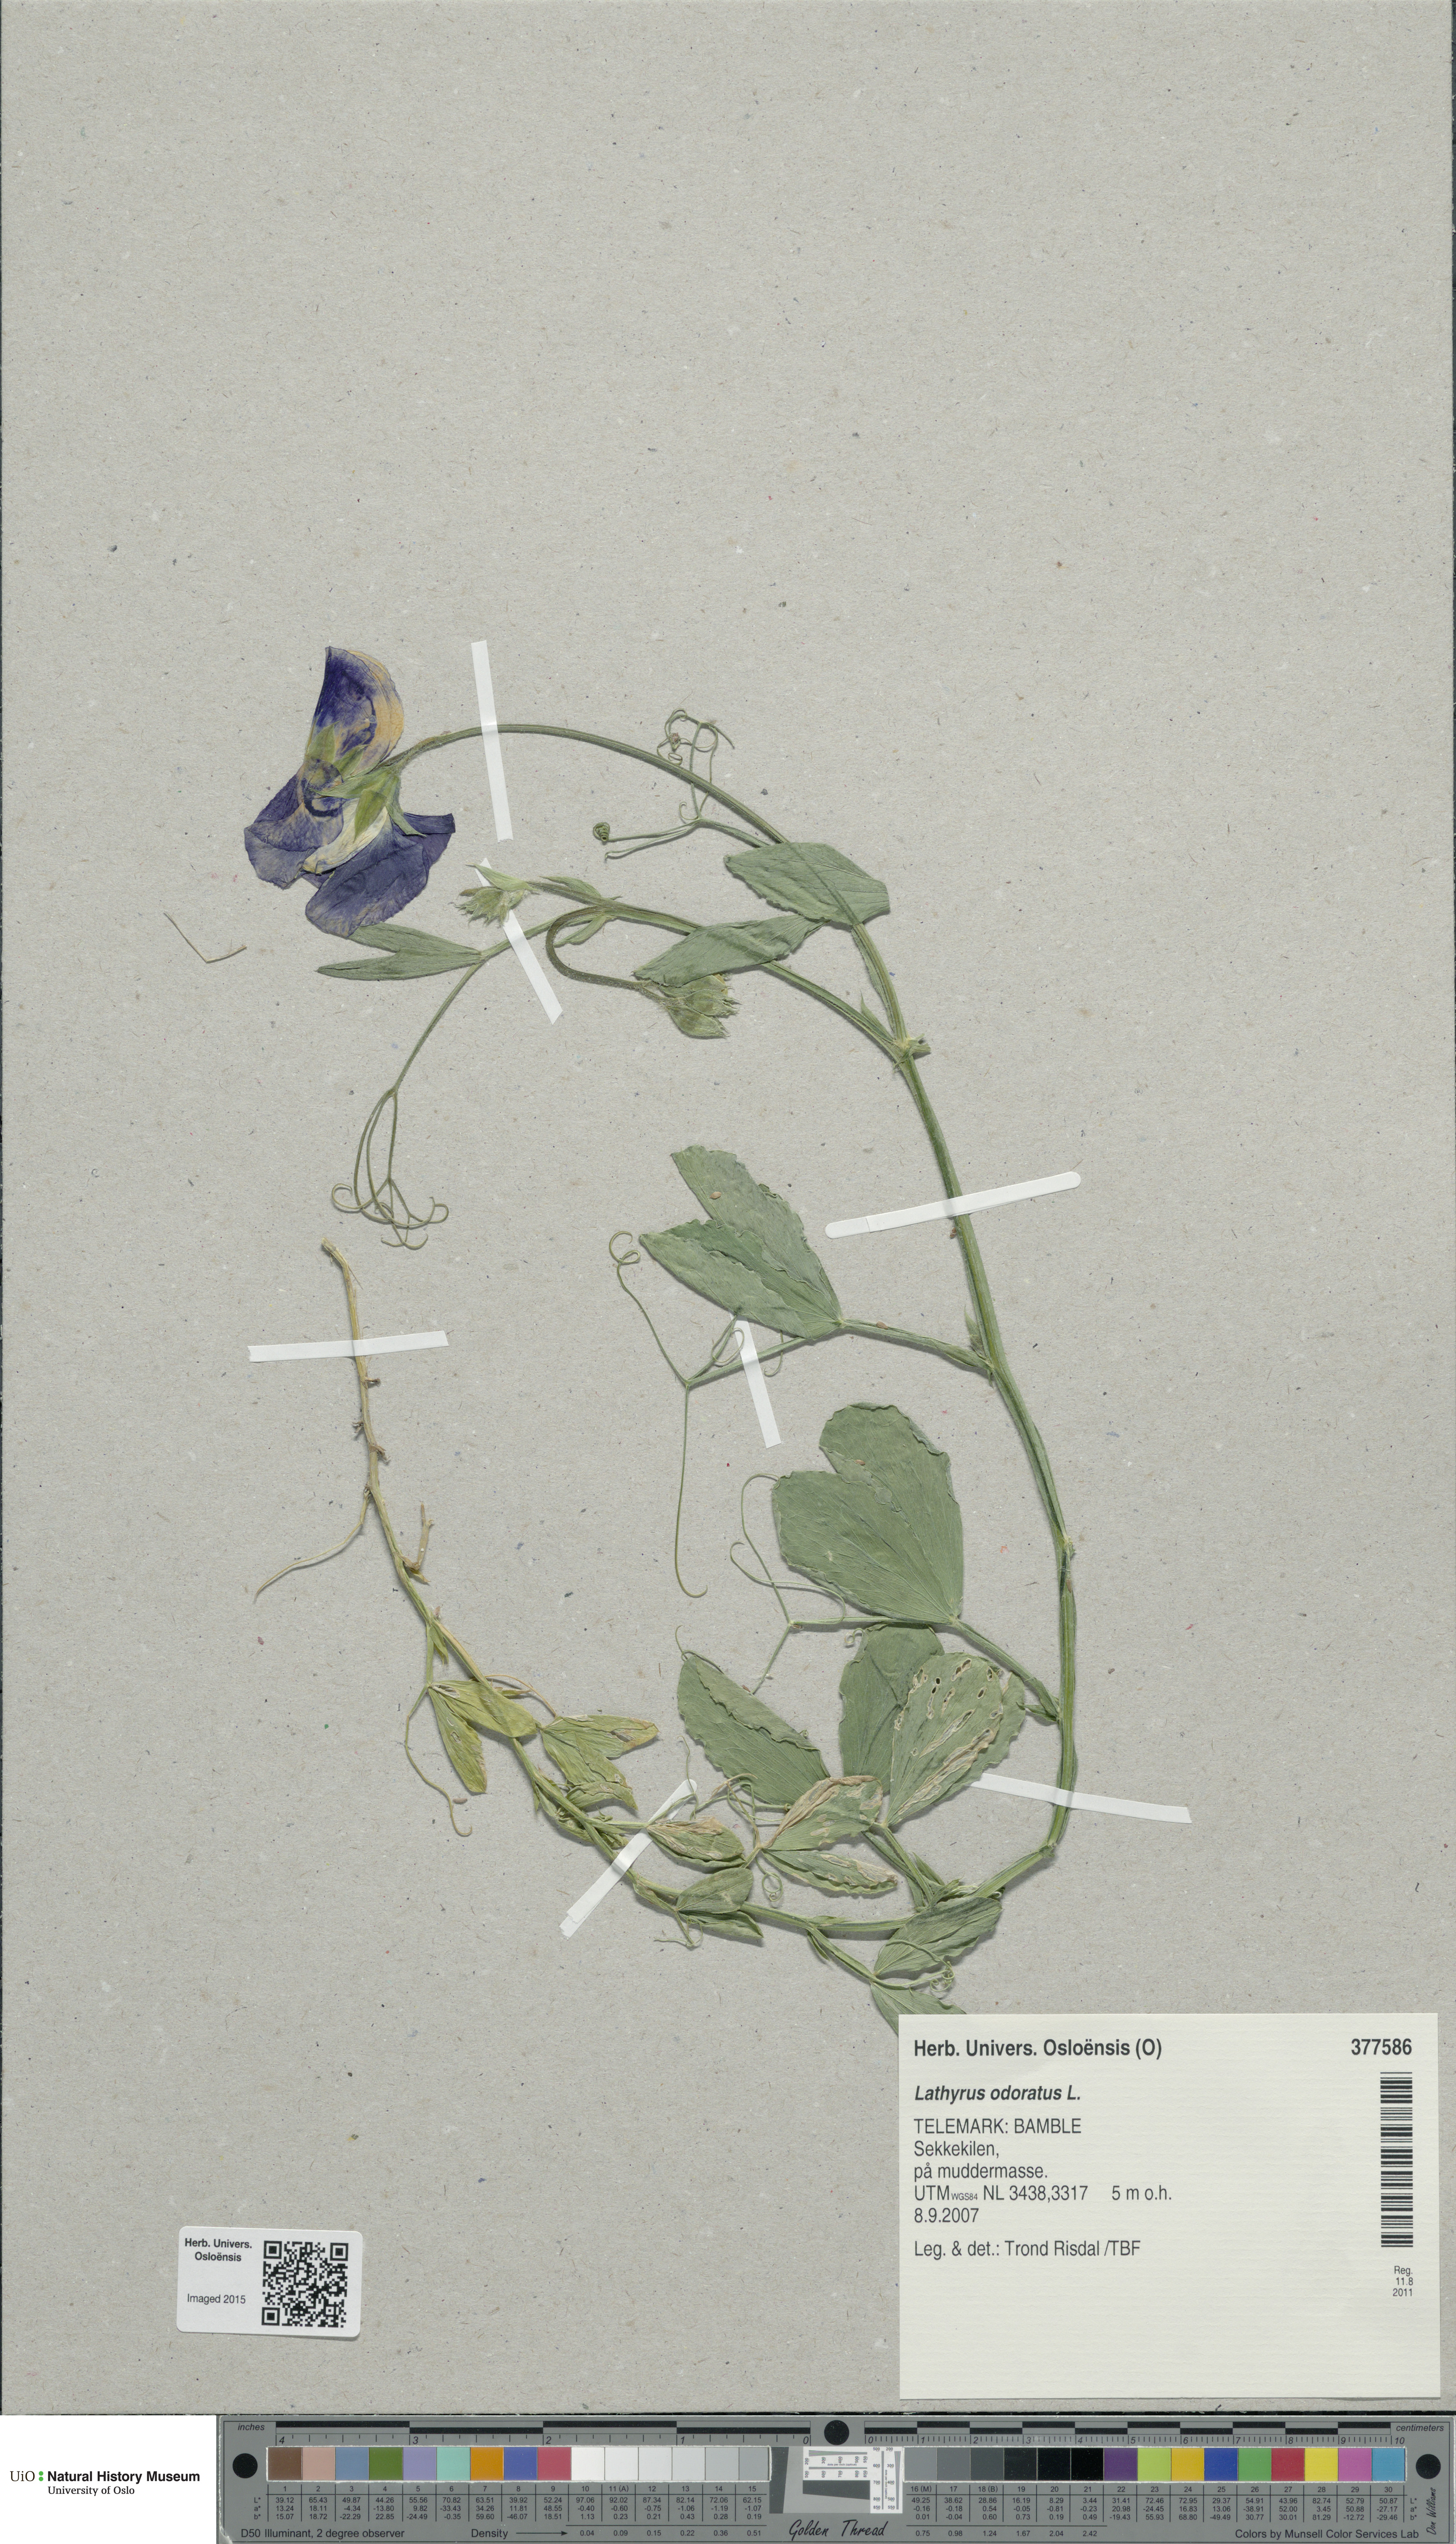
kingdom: Plantae
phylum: Tracheophyta
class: Magnoliopsida
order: Fabales
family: Fabaceae
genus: Lathyrus
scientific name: Lathyrus odoratus
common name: Sweet pea
